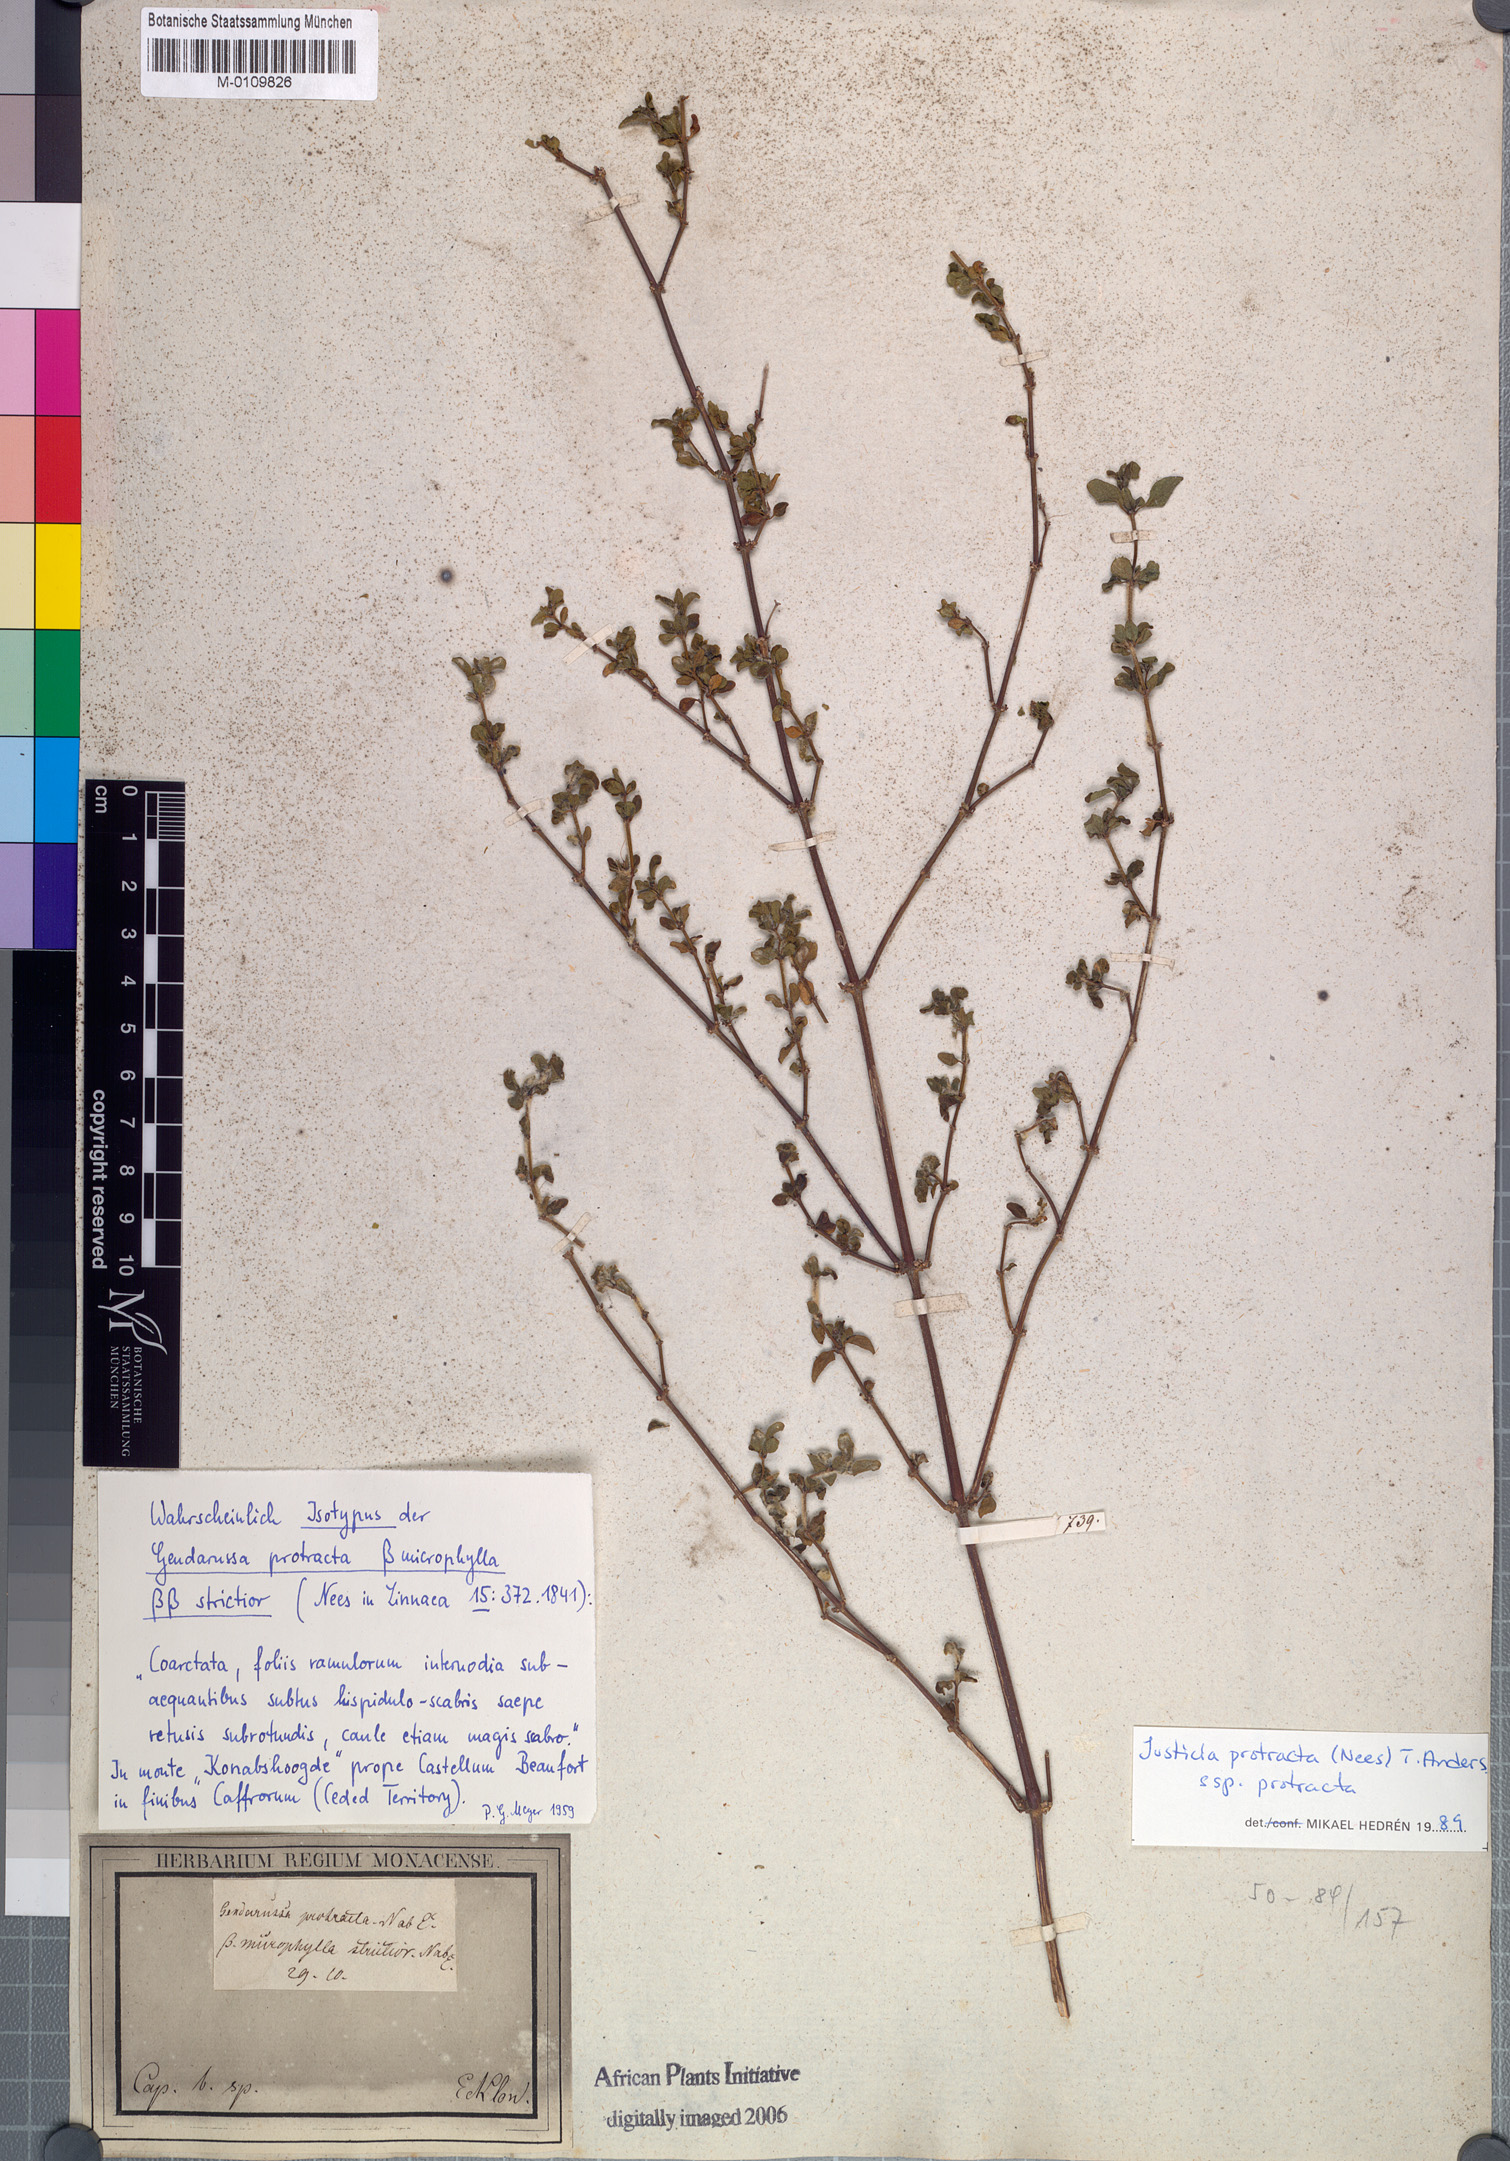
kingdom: Plantae
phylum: Tracheophyta
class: Magnoliopsida
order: Lamiales
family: Acanthaceae
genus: Justicia
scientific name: Justicia protracta
